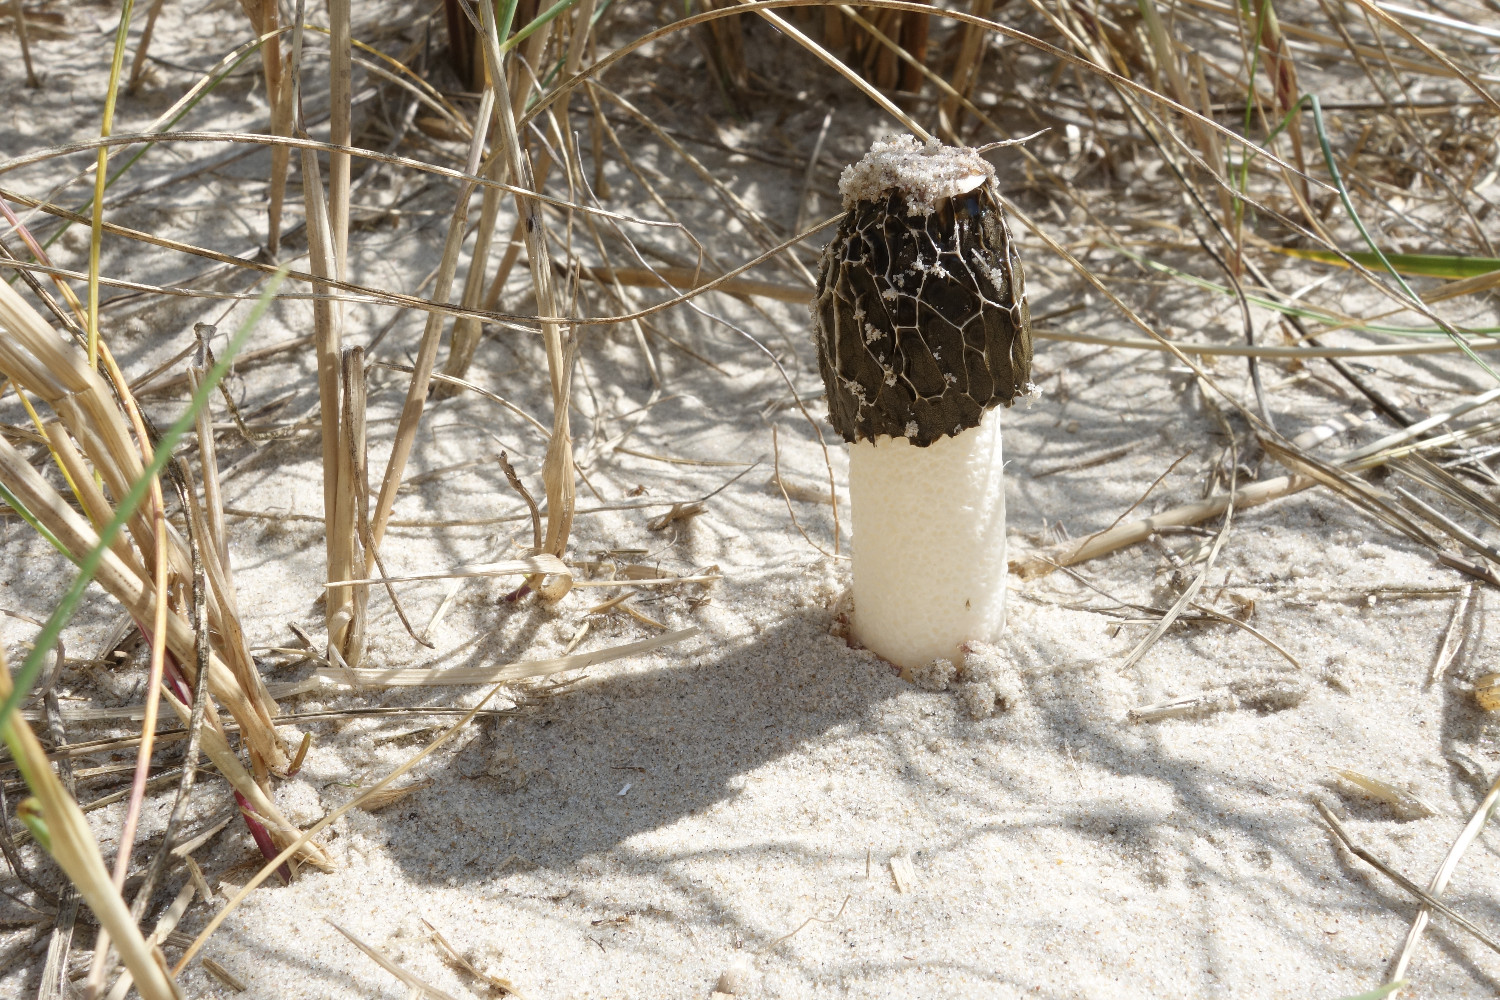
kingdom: Fungi
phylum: Basidiomycota
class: Agaricomycetes
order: Phallales
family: Phallaceae
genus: Phallus
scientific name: Phallus hadriani
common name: sand-stinksvamp
